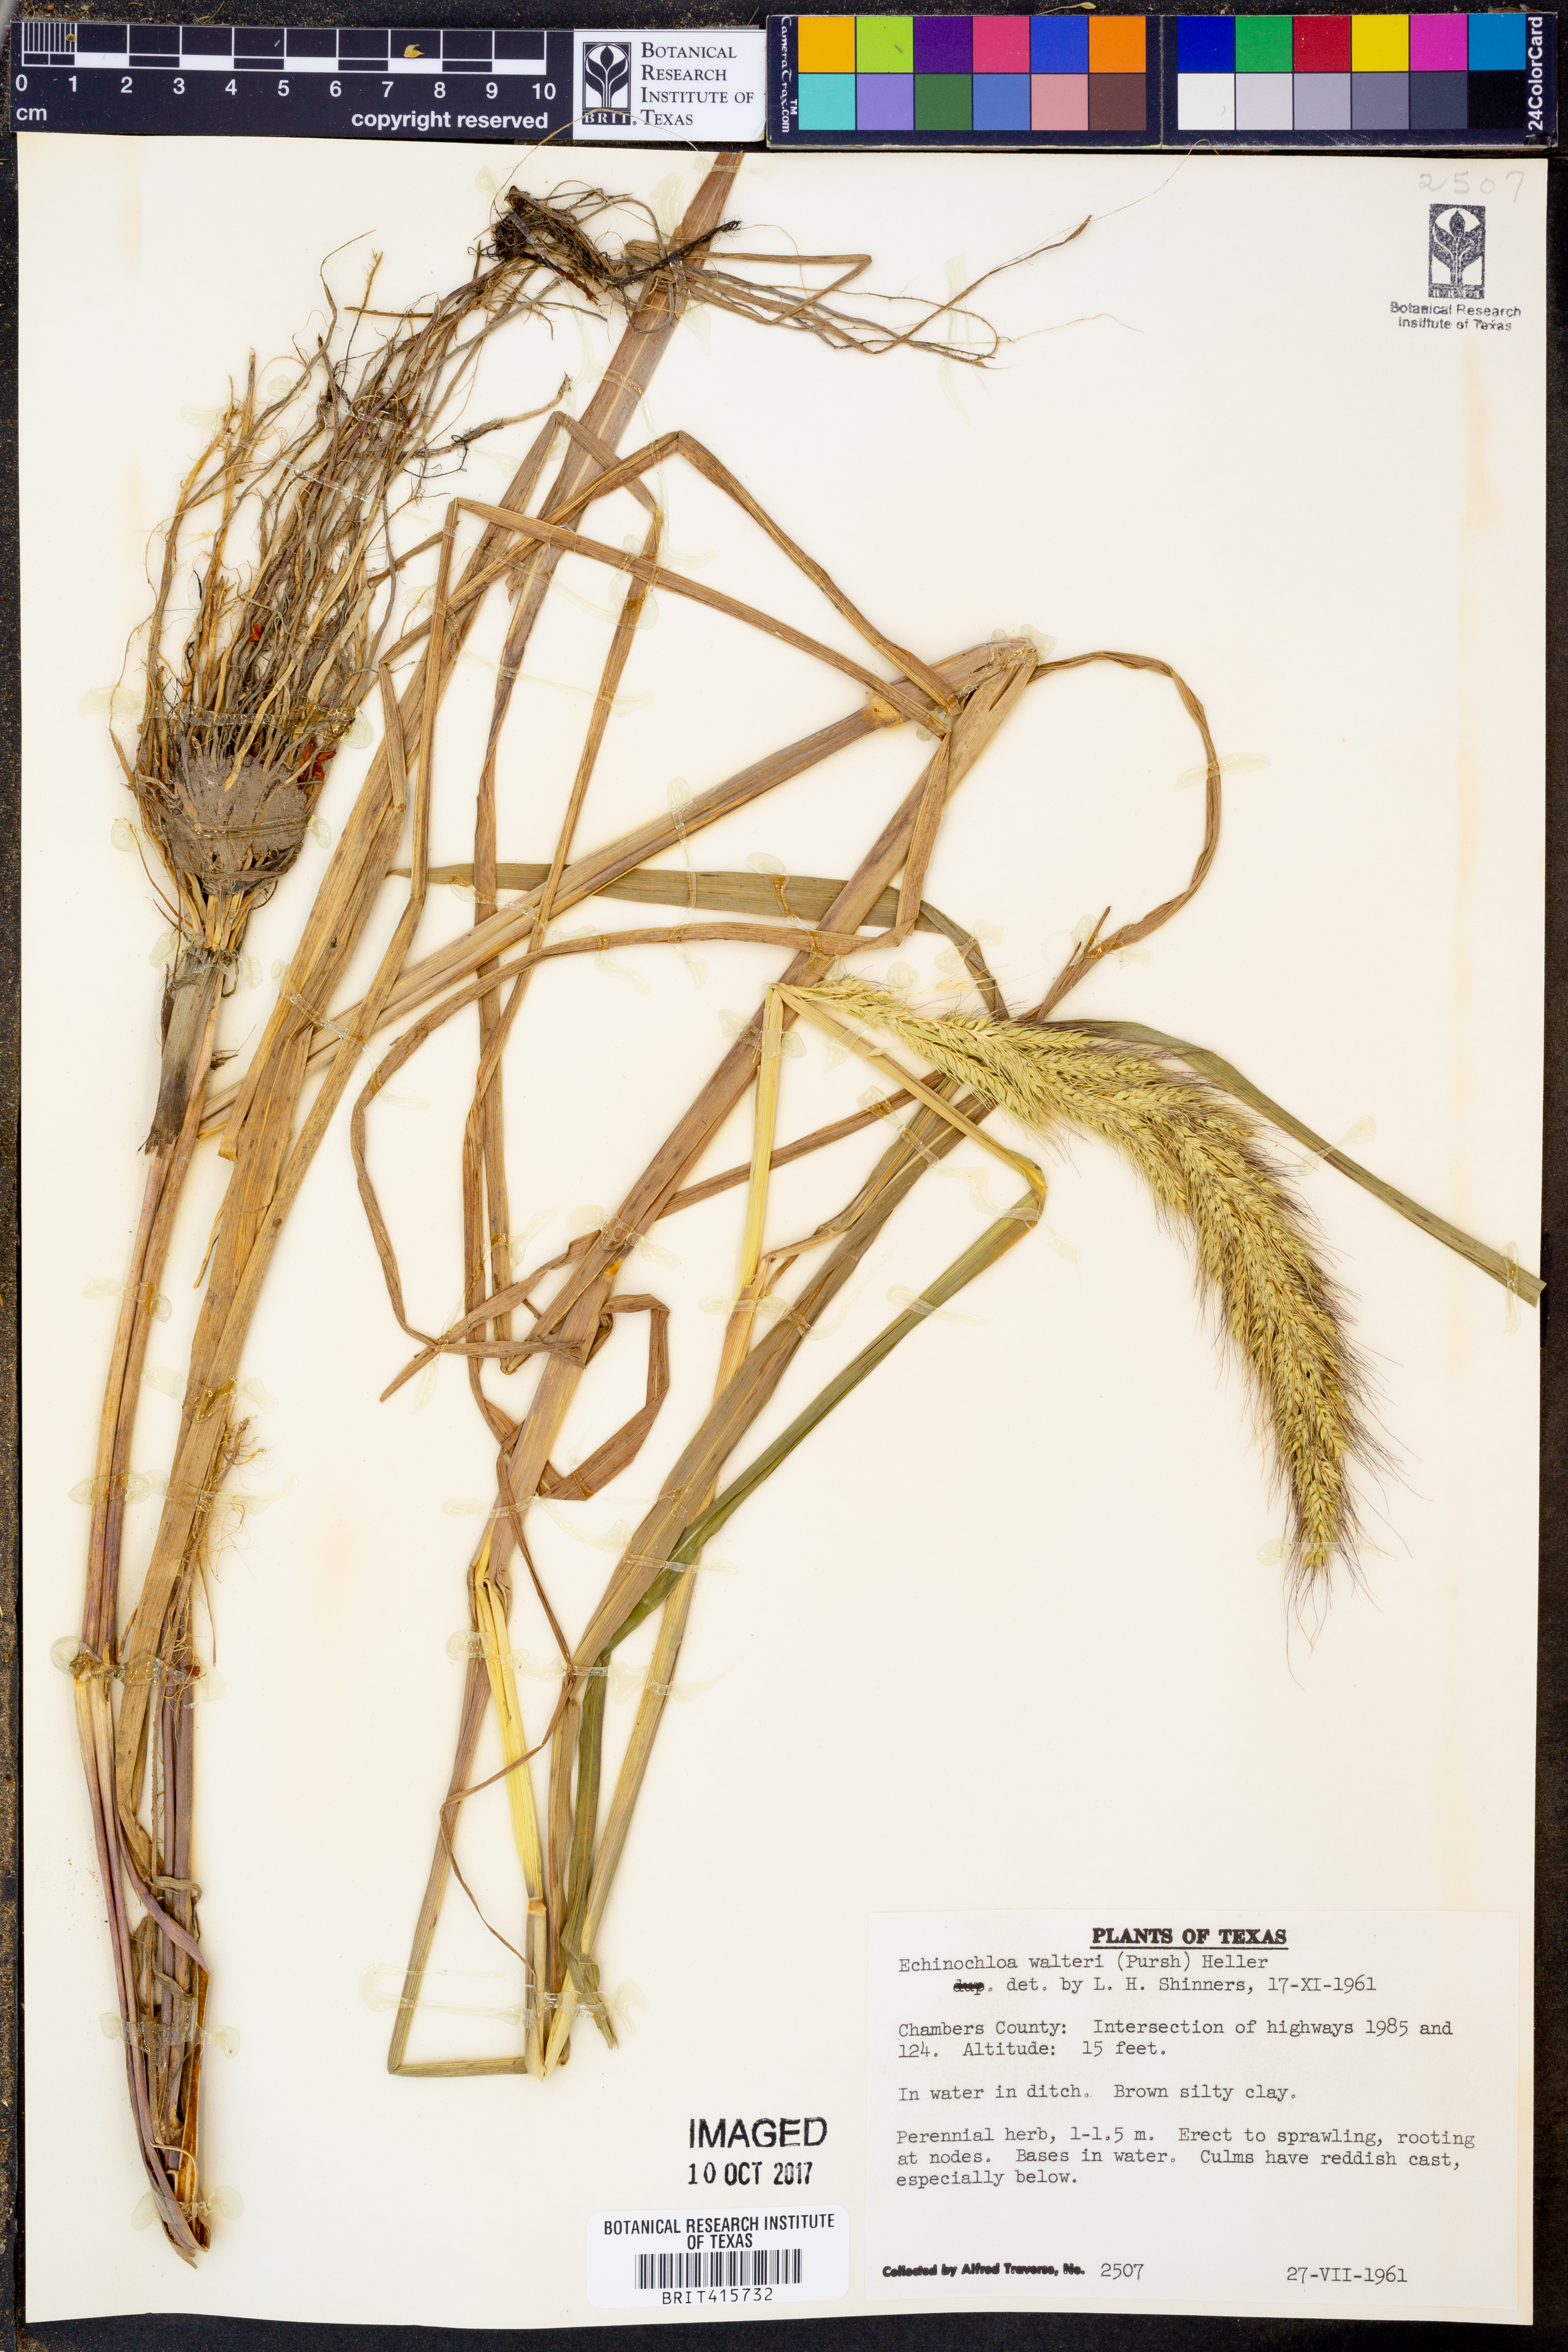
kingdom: Plantae
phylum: Tracheophyta
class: Liliopsida
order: Poales
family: Poaceae
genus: Echinochloa
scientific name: Echinochloa walteri
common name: Coast barnyard grass
